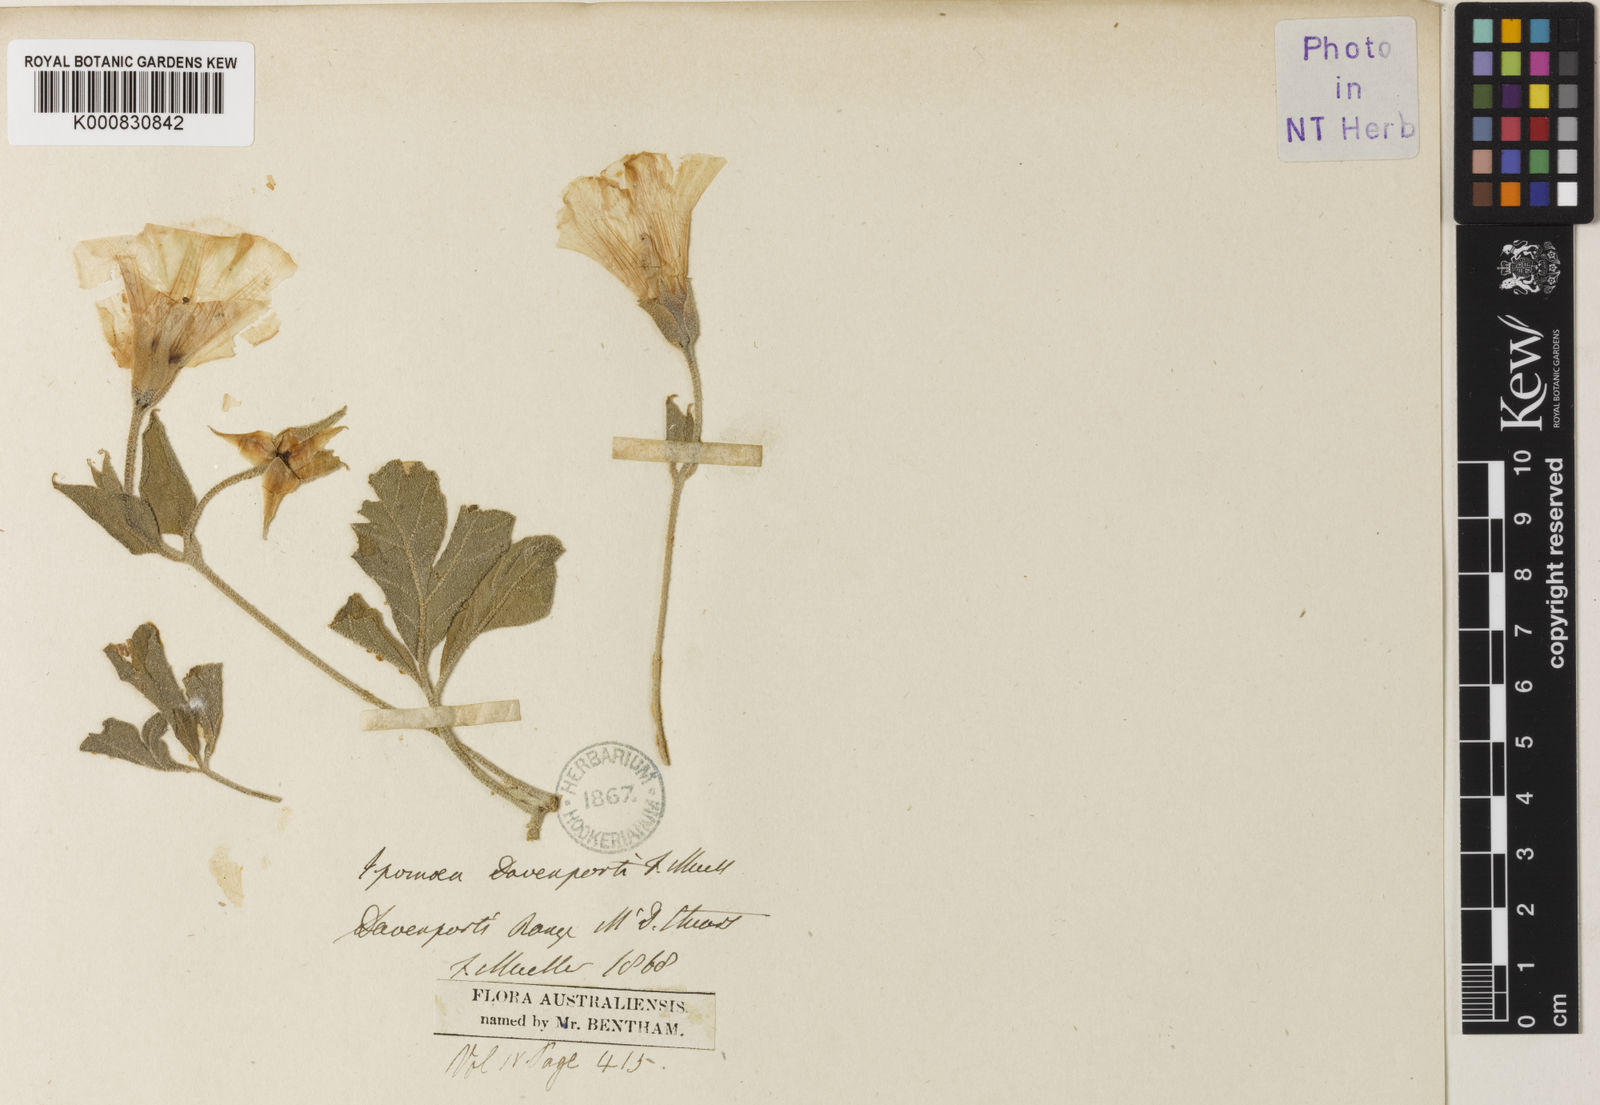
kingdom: Plantae
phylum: Tracheophyta
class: Magnoliopsida
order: Solanales
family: Convolvulaceae
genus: Distimake
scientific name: Distimake davenportii
